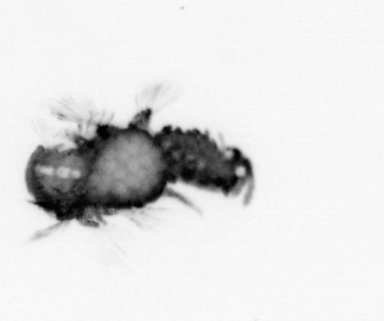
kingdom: Animalia
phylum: Annelida
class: Polychaeta
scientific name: Polychaeta
